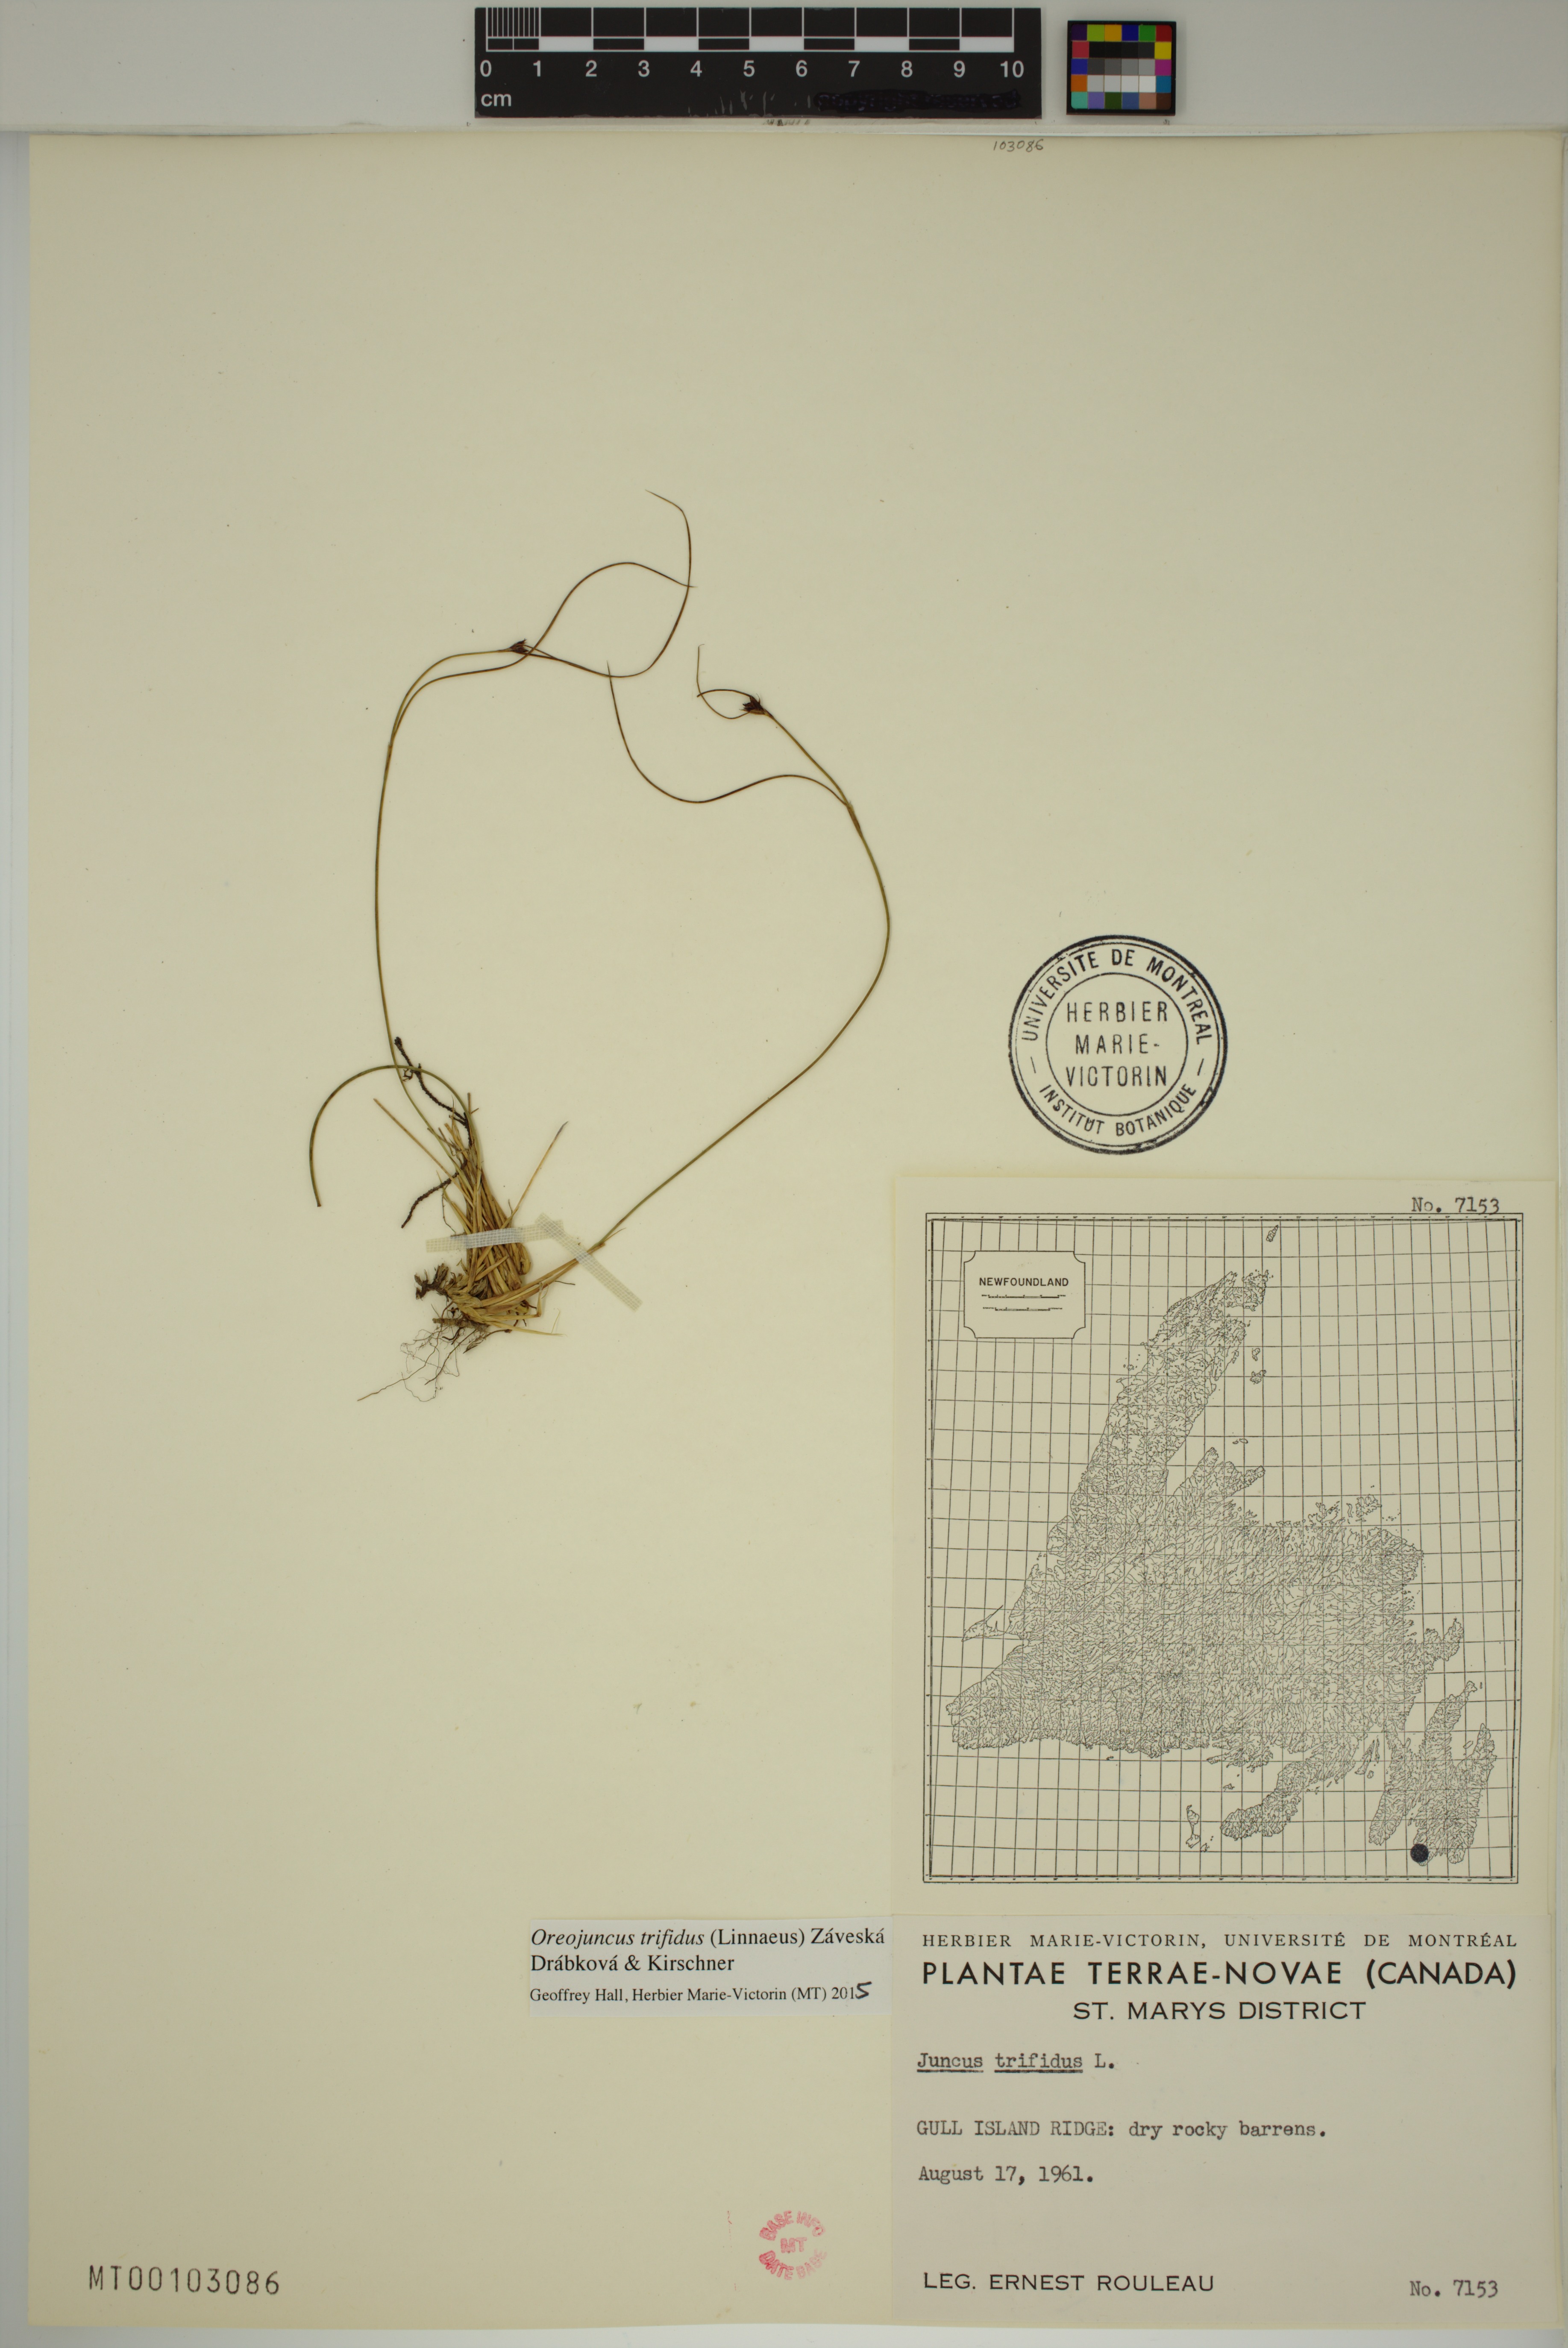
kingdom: Plantae
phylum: Tracheophyta
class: Liliopsida
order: Poales
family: Juncaceae
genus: Oreojuncus
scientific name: Oreojuncus trifidus
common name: Highland rush
